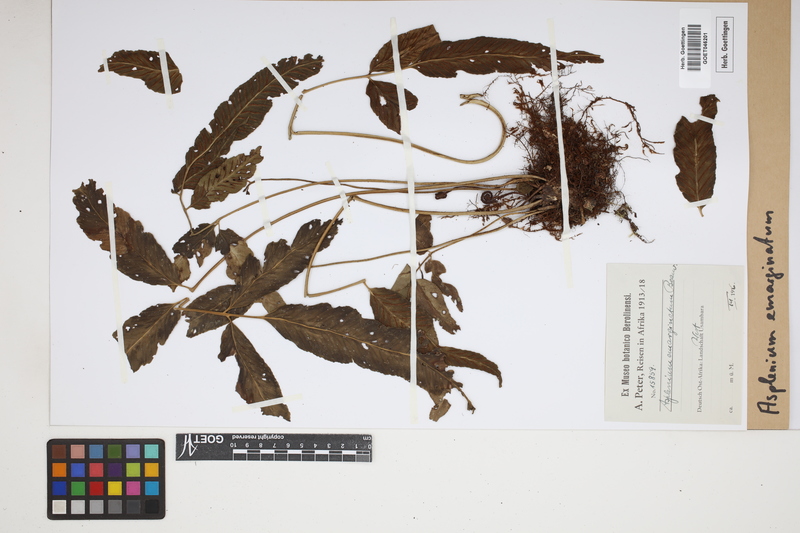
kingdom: Plantae
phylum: Tracheophyta
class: Polypodiopsida
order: Polypodiales
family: Aspleniaceae
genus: Asplenium
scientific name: Asplenium emarginatum
